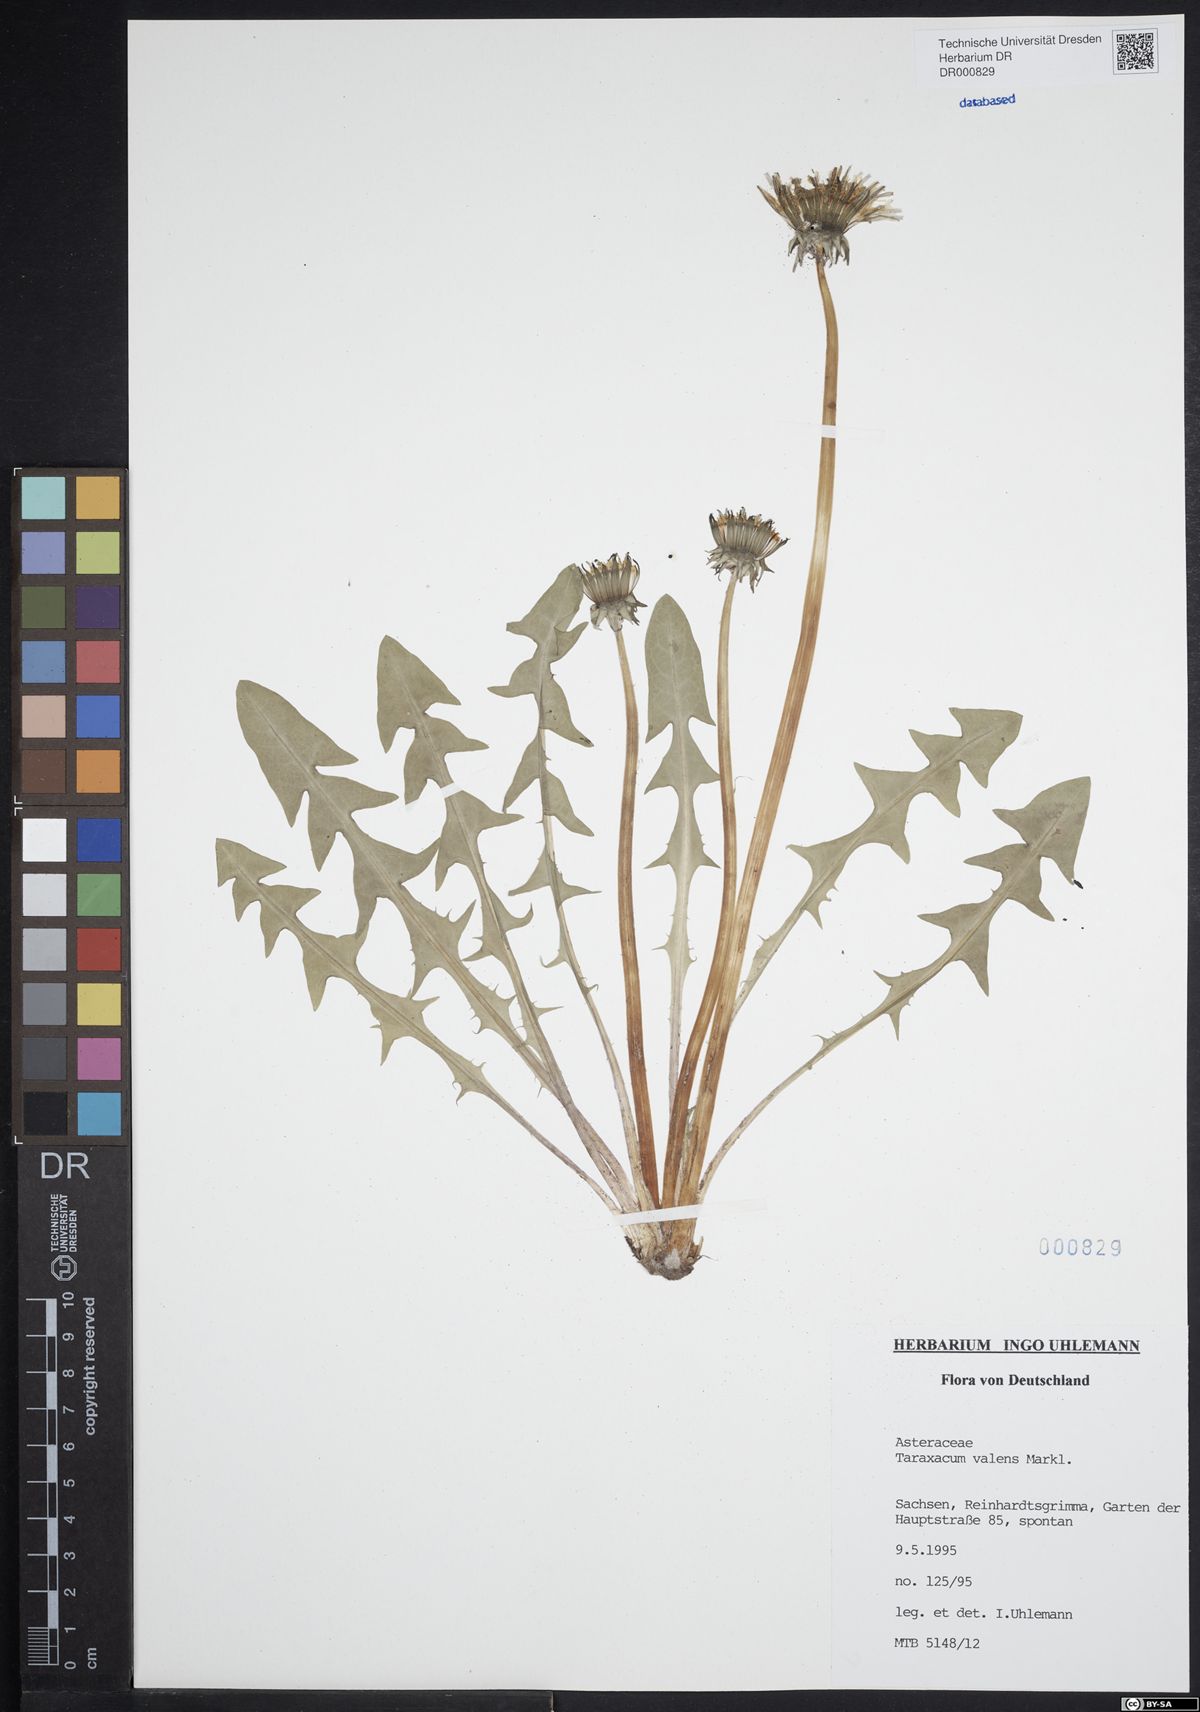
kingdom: Plantae
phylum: Tracheophyta
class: Magnoliopsida
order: Asterales
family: Asteraceae
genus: Taraxacum
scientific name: Taraxacum valens
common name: Reflexed-bracted dandelion
